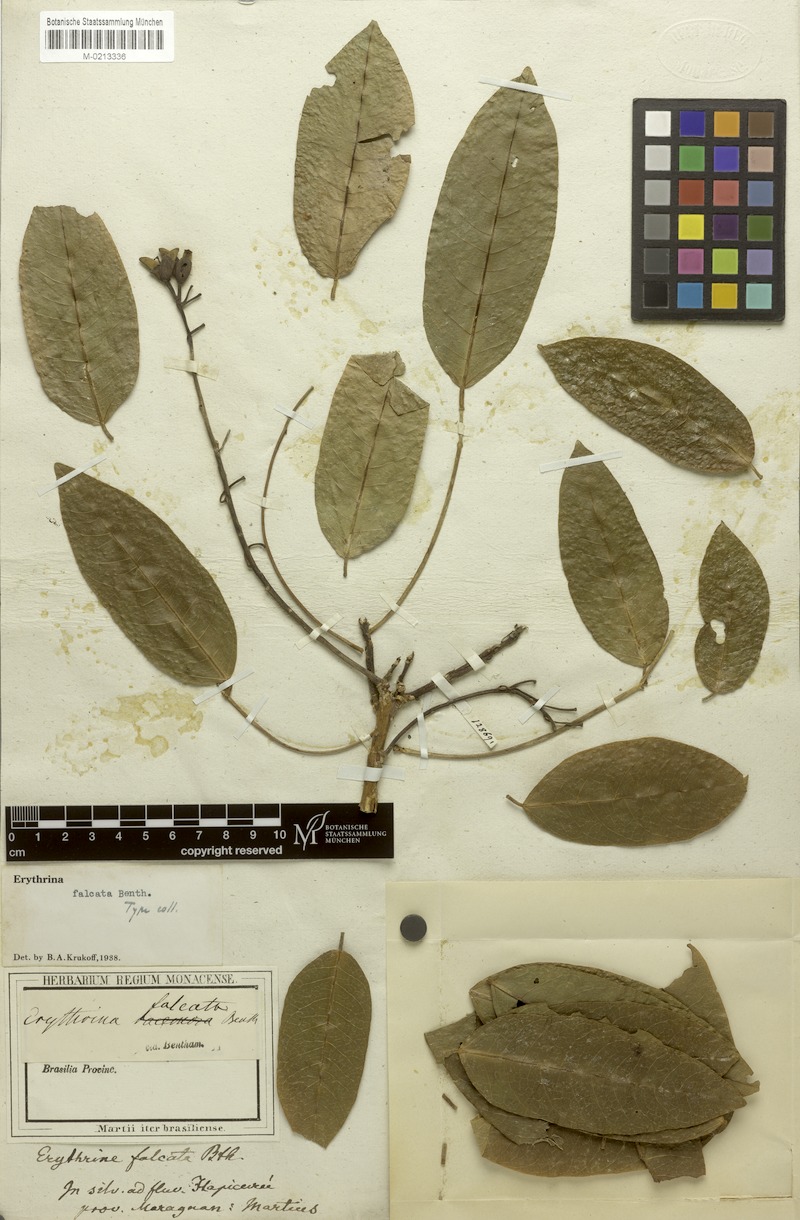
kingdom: Plantae
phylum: Tracheophyta
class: Magnoliopsida
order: Fabales
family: Fabaceae
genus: Erythrina
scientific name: Erythrina falcata
